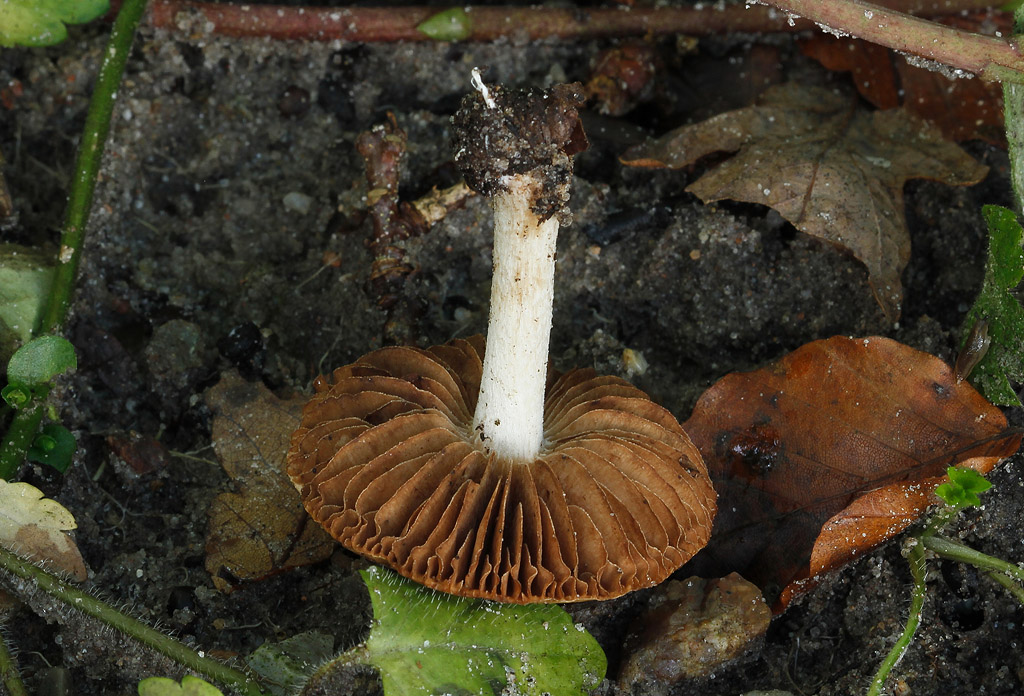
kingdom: Fungi
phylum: Basidiomycota
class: Agaricomycetes
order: Agaricales
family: Hymenogastraceae
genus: Hebeloma
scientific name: Hebeloma sacchariolens
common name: sødtduftende tåreblad
